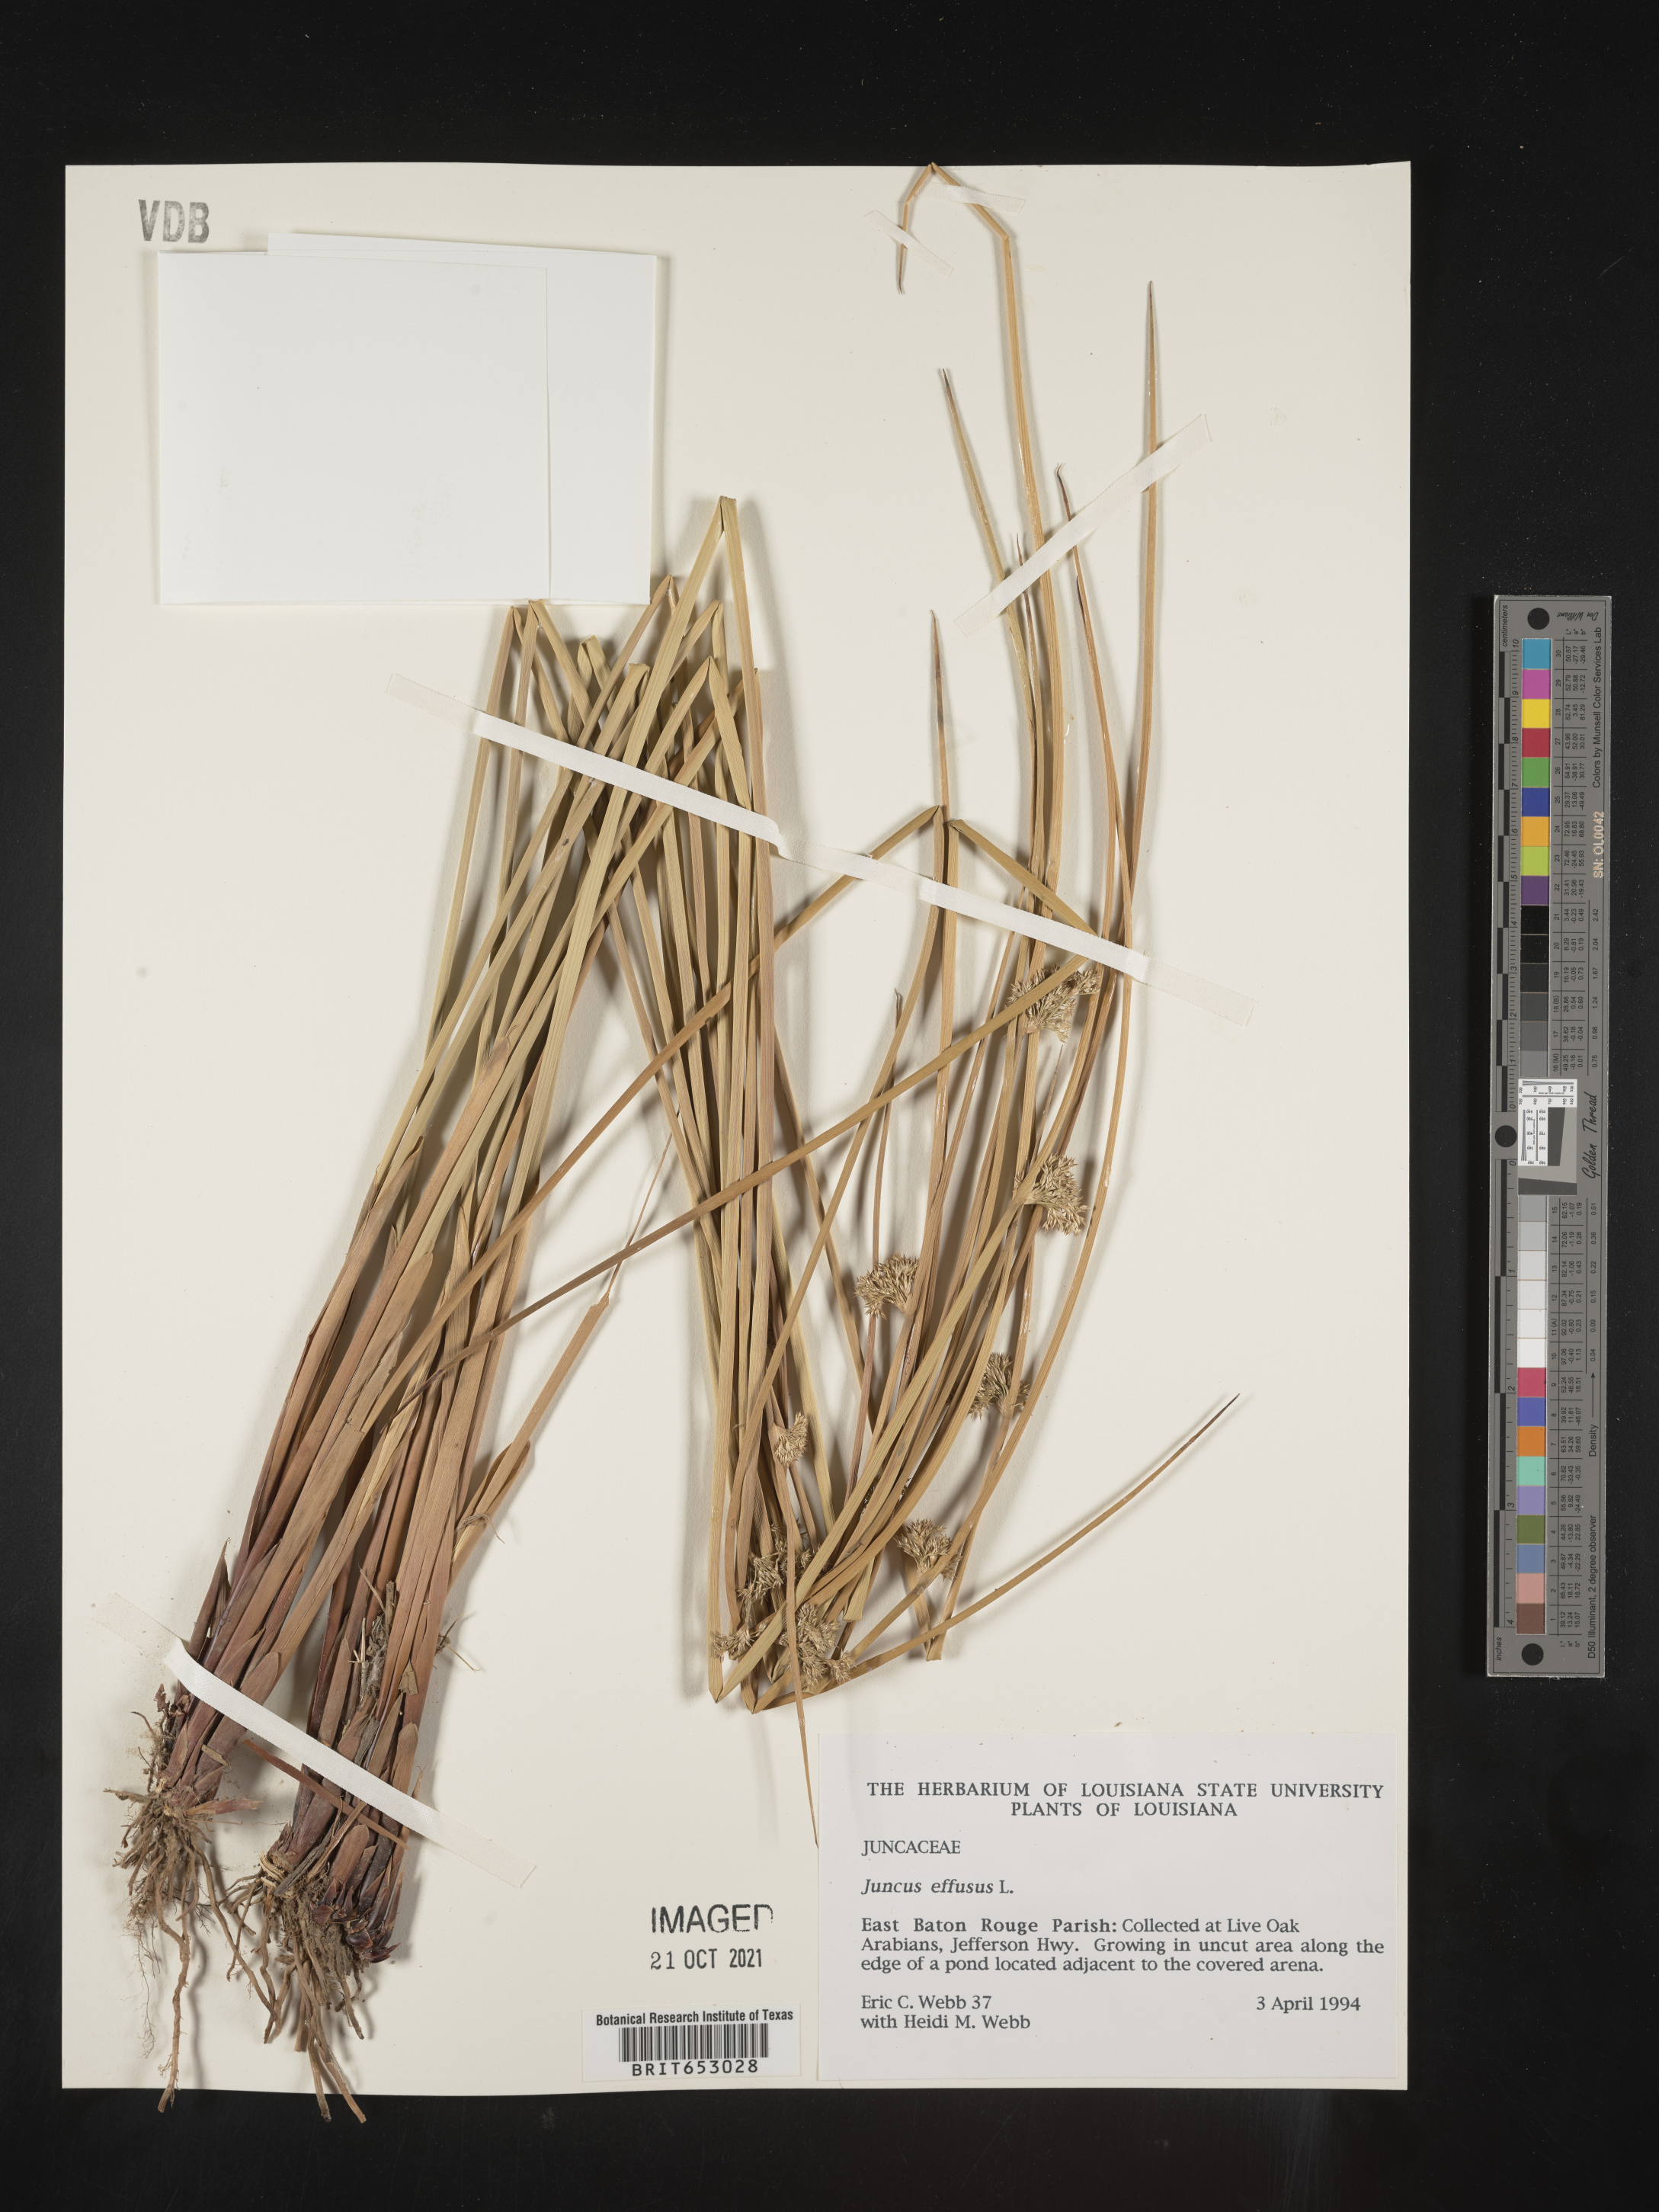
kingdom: Plantae
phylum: Tracheophyta
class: Liliopsida
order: Poales
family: Juncaceae
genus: Juncus
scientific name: Juncus effusus
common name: Soft rush
